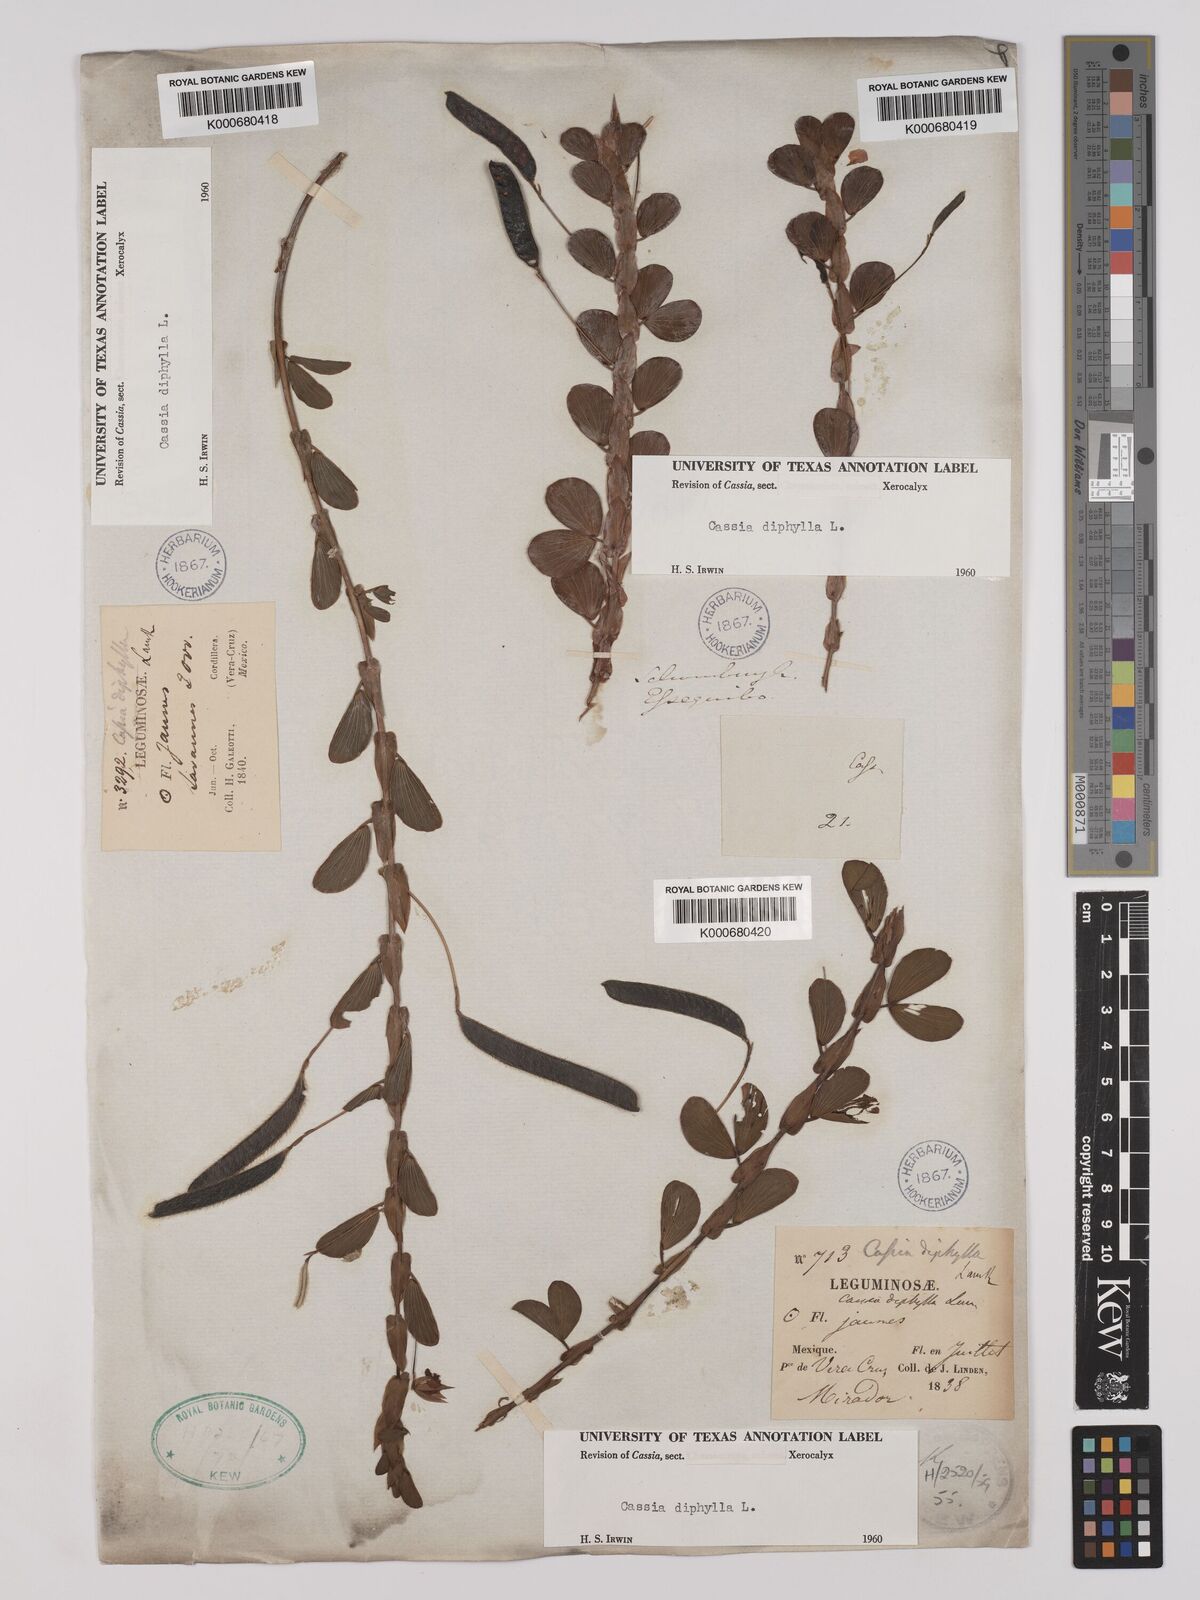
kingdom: Plantae
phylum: Tracheophyta
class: Magnoliopsida
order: Fabales
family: Fabaceae
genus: Chamaecrista
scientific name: Chamaecrista diphylla
